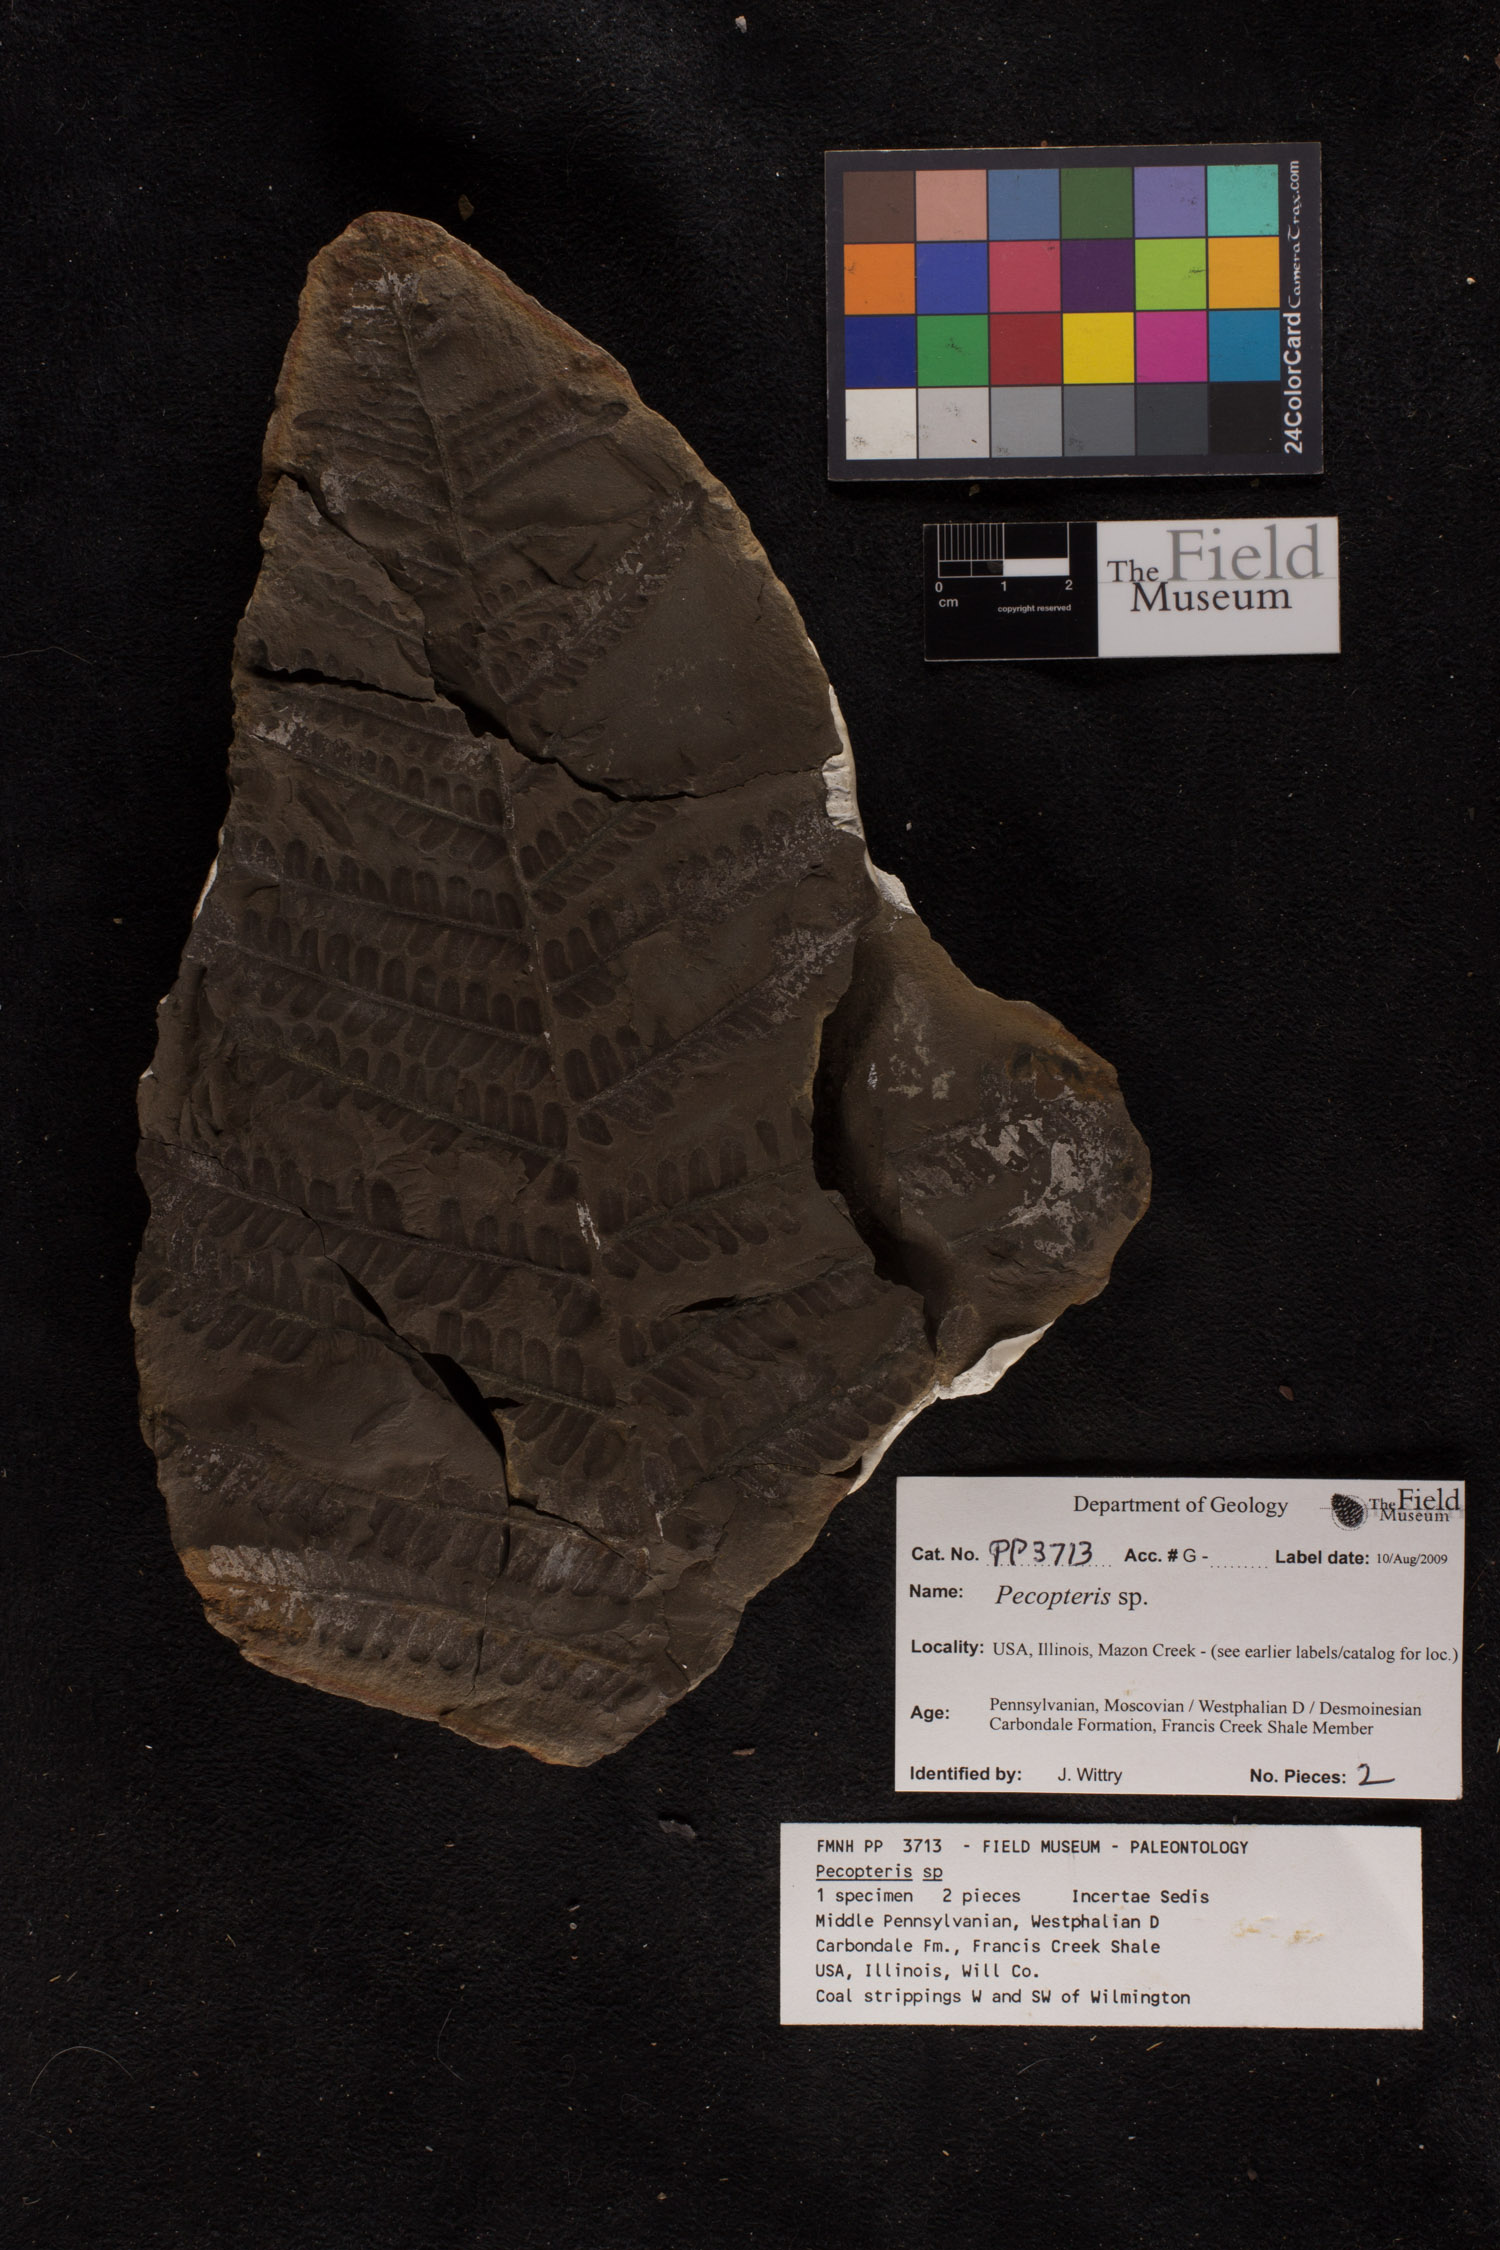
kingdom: Plantae
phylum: Tracheophyta
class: Polypodiopsida
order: Marattiales
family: Asterothecaceae
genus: Pecopteris
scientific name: Pecopteris
